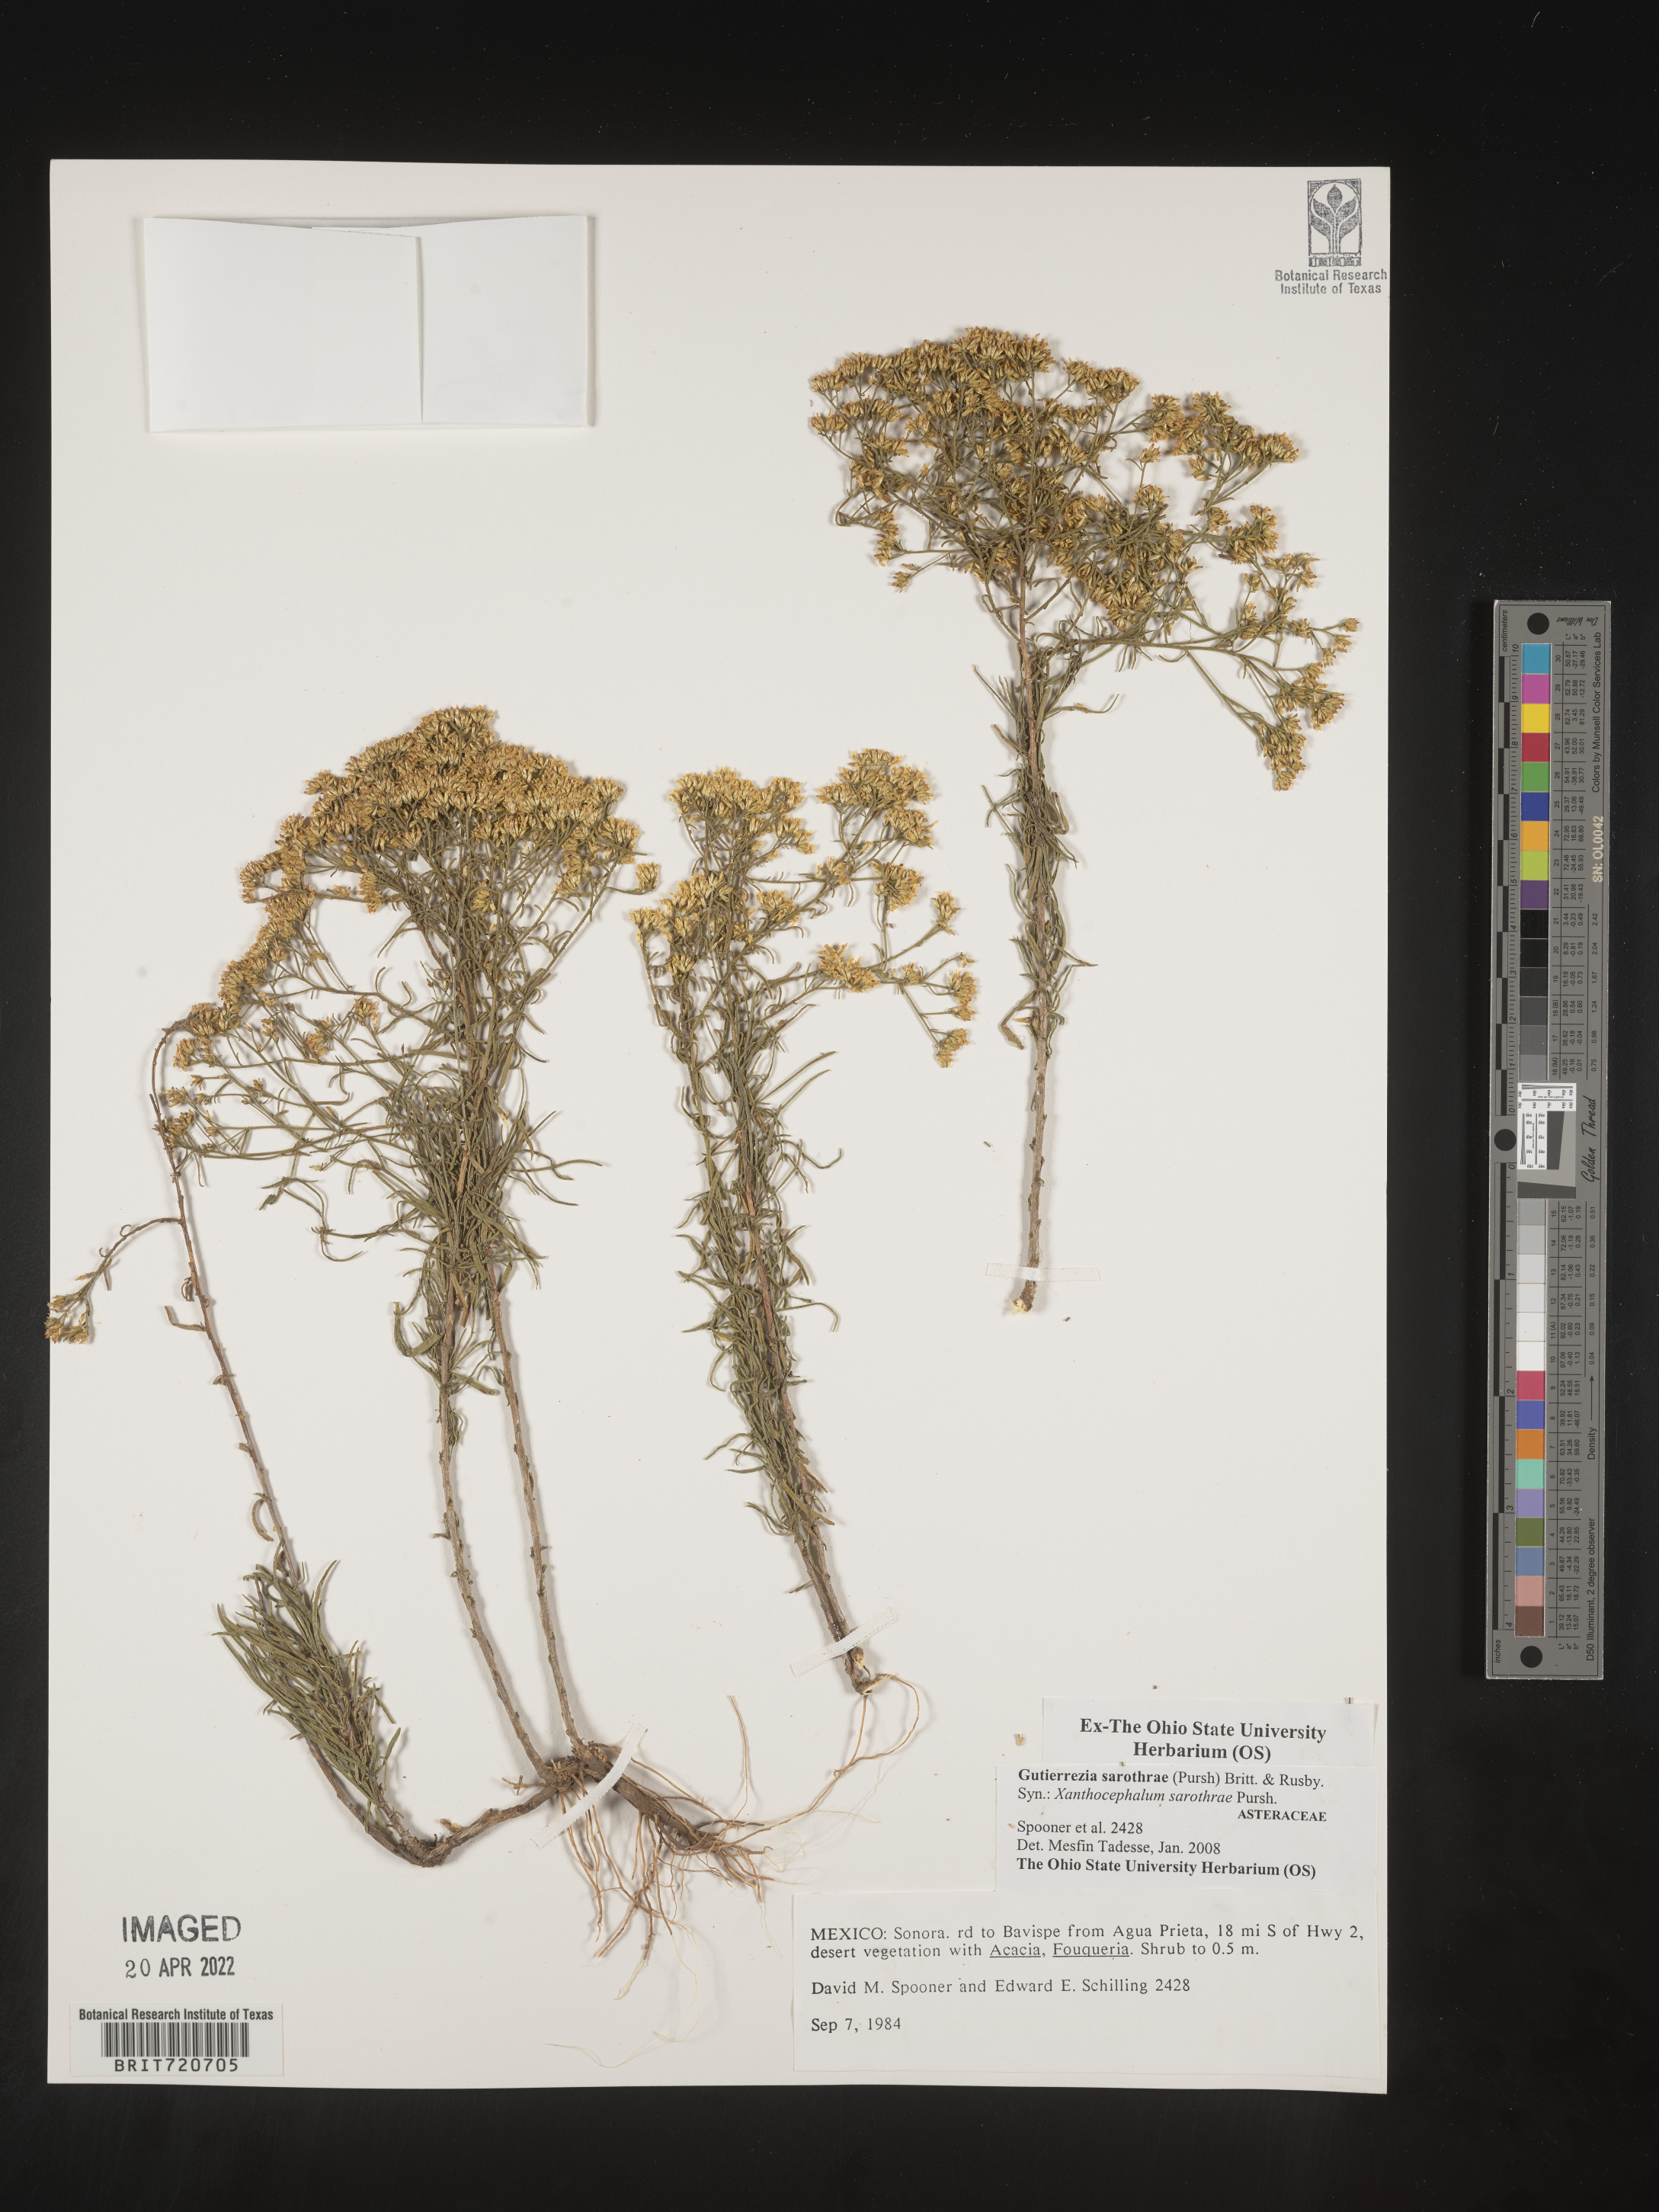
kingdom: Plantae
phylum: Tracheophyta
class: Magnoliopsida
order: Asterales
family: Asteraceae
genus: Gutierrezia
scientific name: Gutierrezia sarothrae
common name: Broom snakeweed
